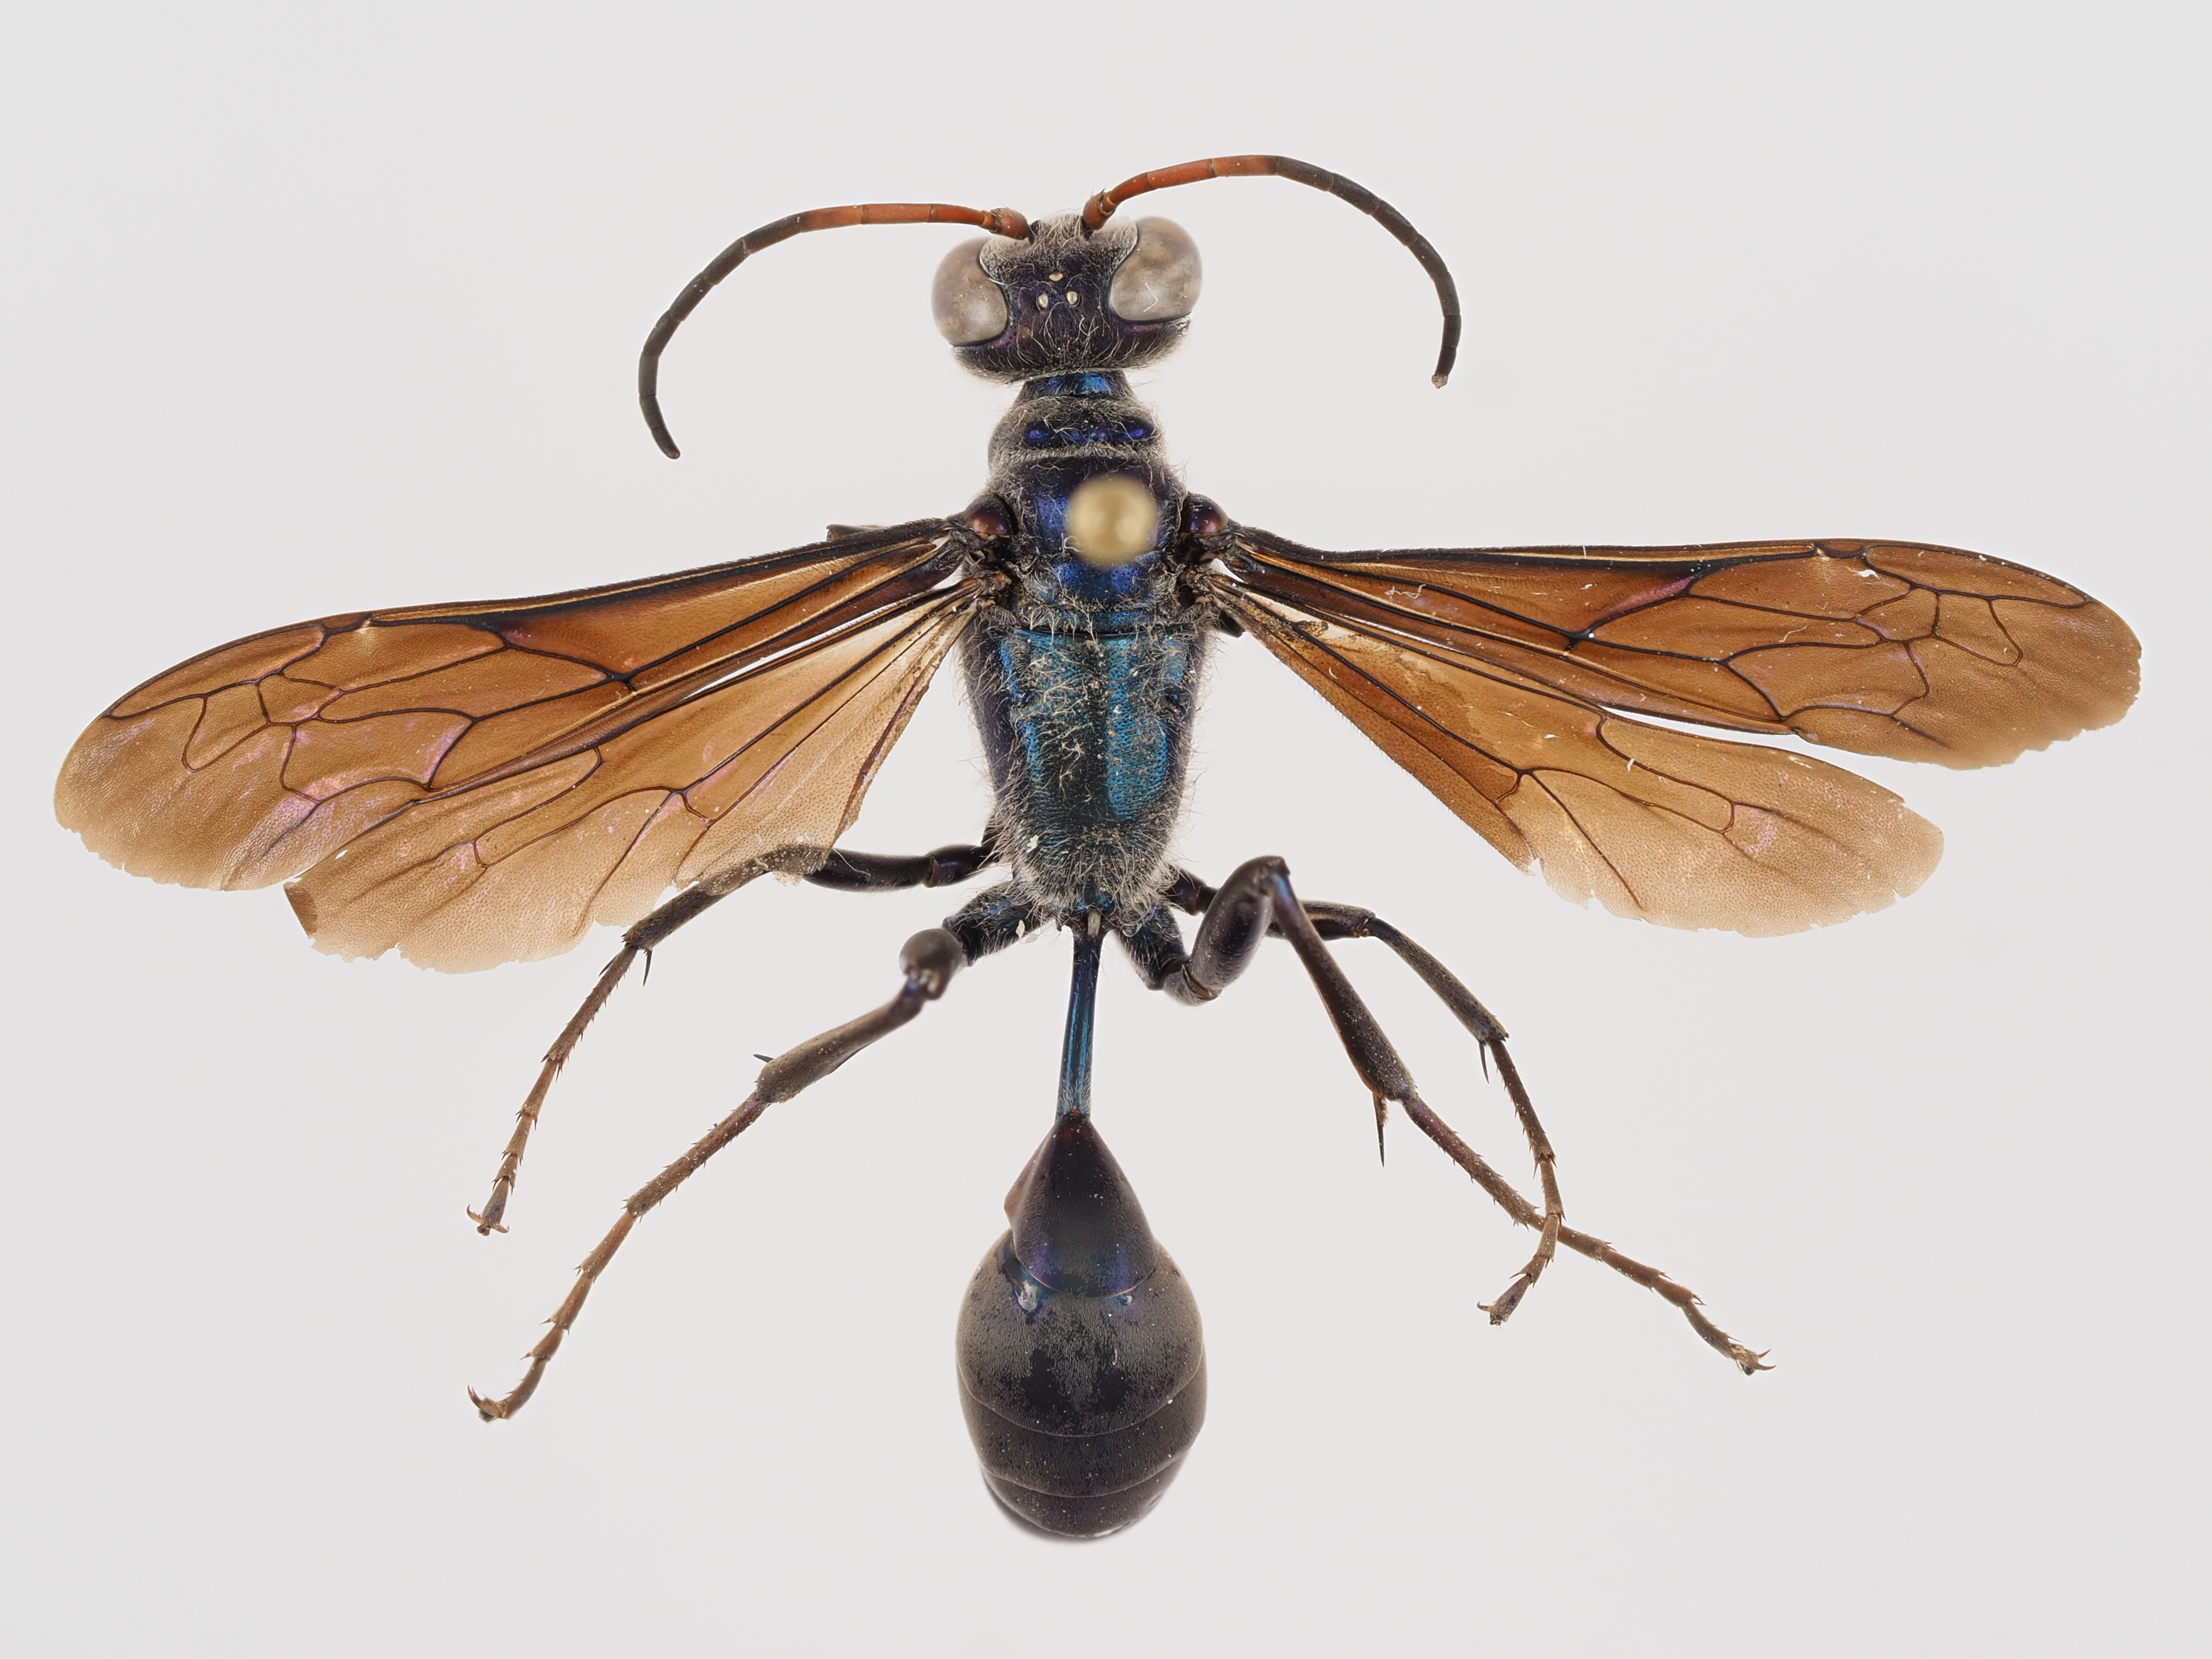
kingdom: Animalia
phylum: Arthropoda
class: Insecta
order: Hymenoptera
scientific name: Hymenoptera
